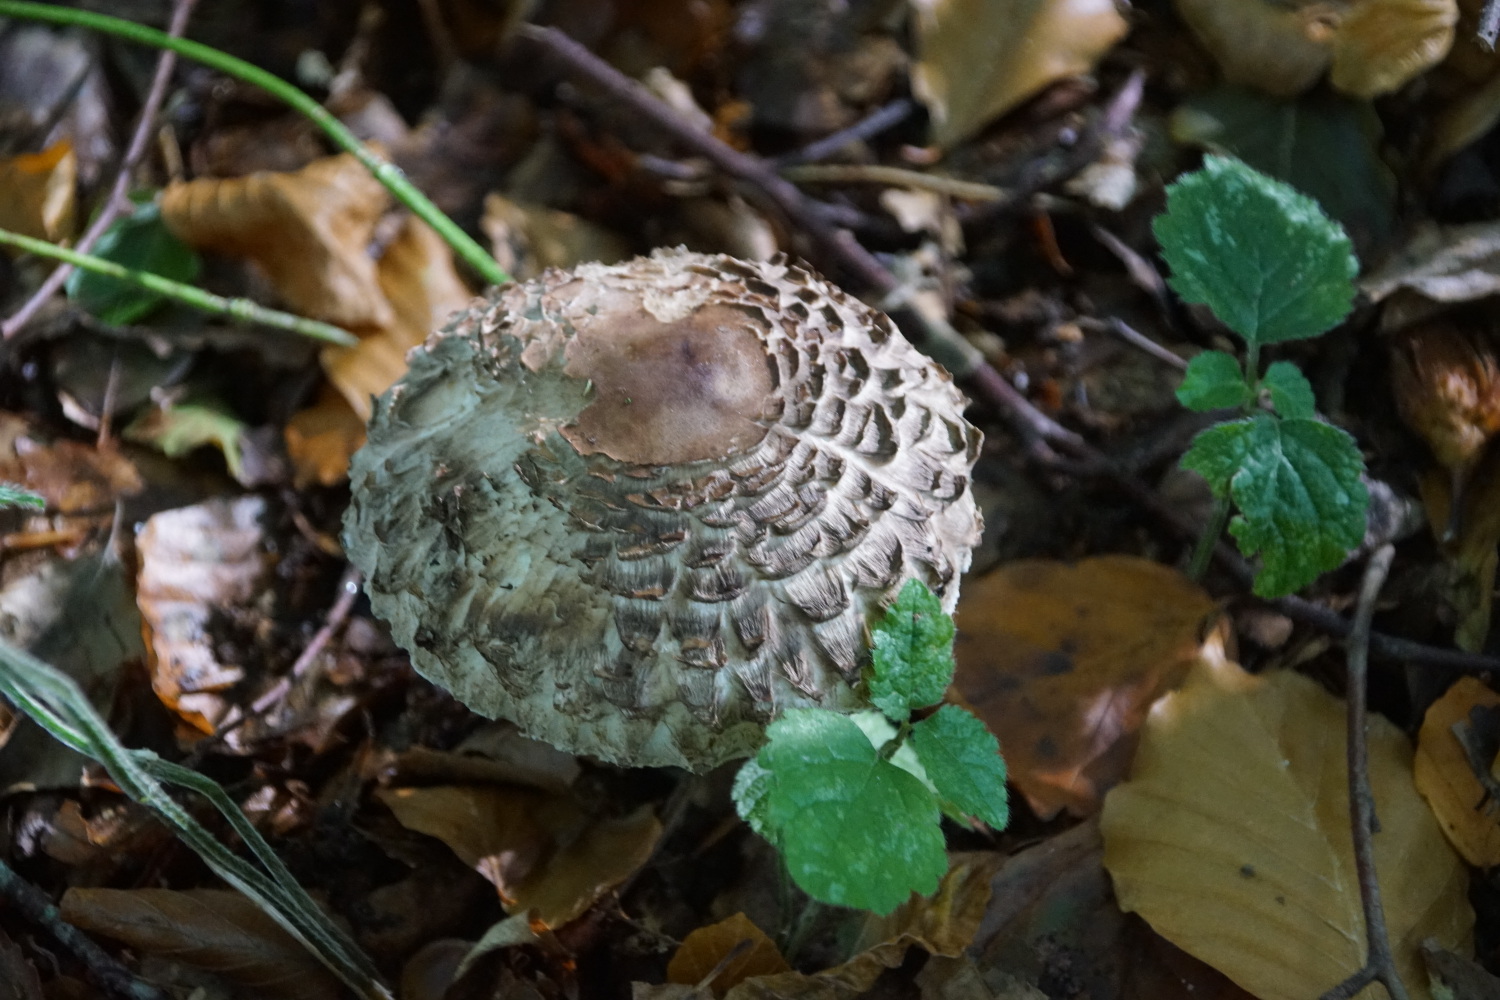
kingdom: Fungi
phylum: Basidiomycota
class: Agaricomycetes
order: Agaricales
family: Agaricaceae
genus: Chlorophyllum
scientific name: Chlorophyllum olivieri
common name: almindelig rabarberhat
